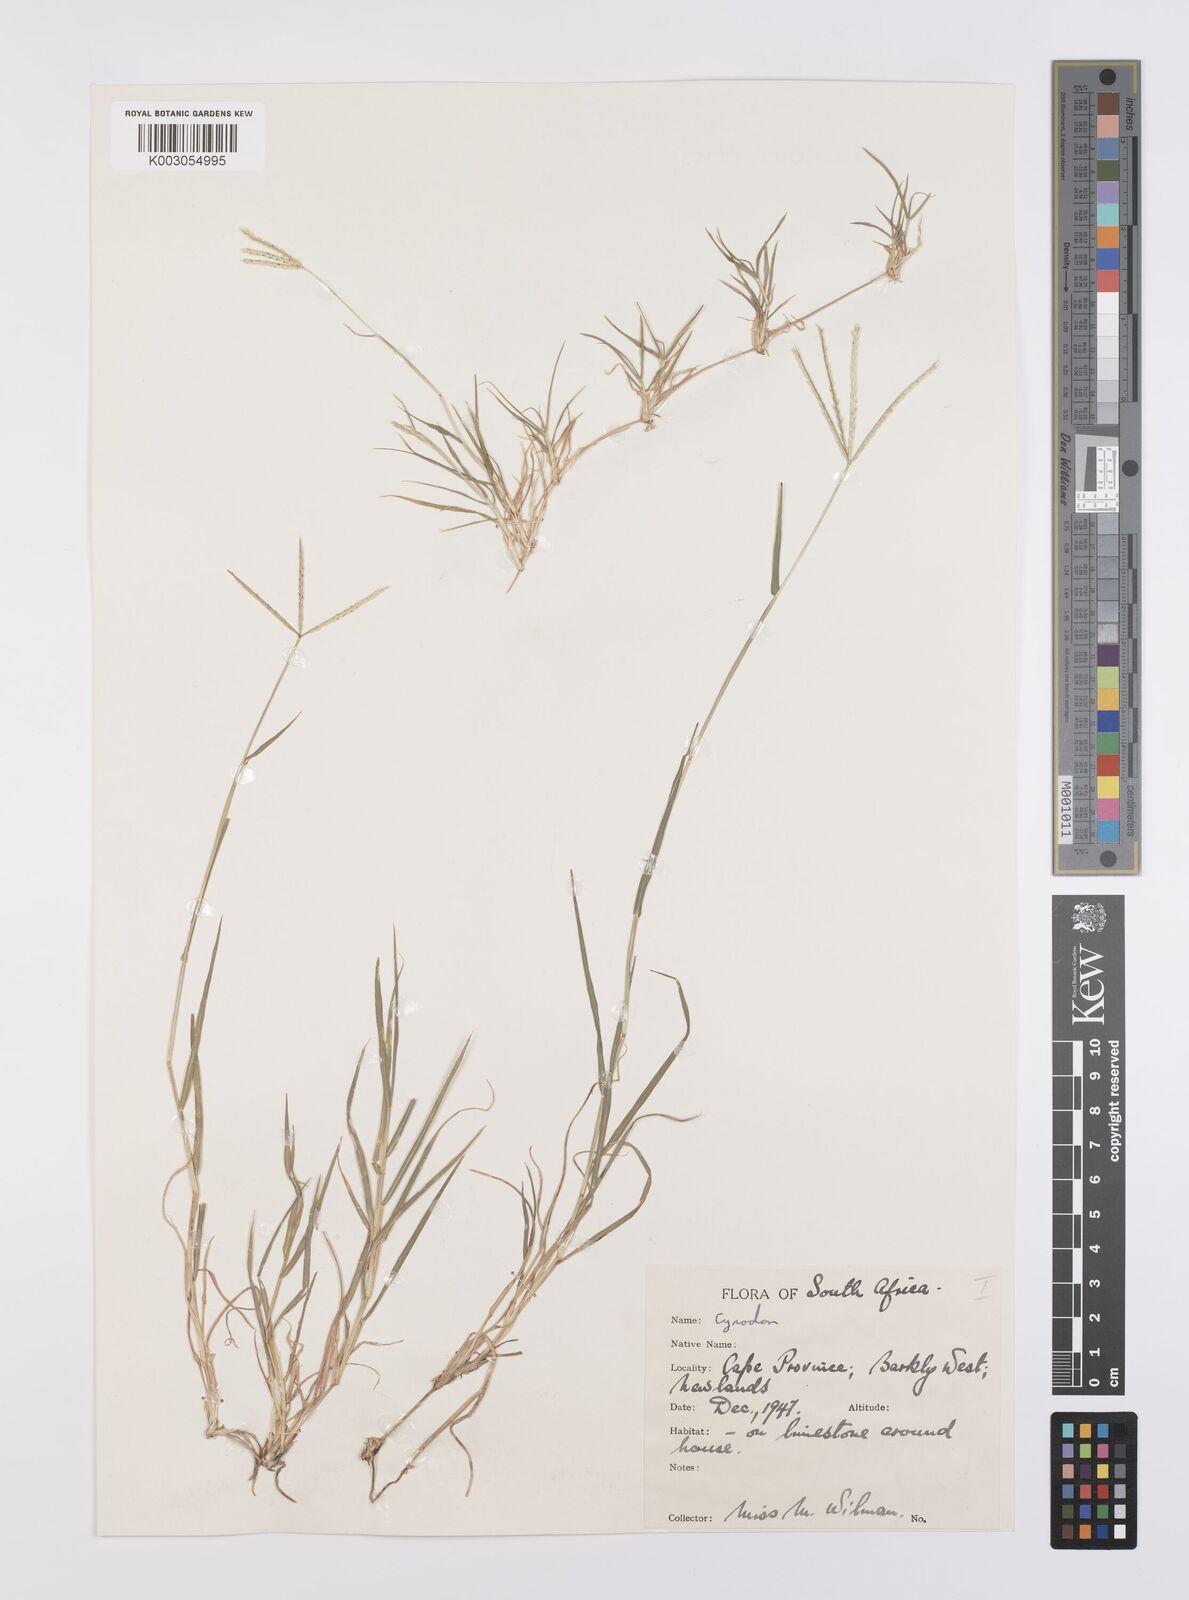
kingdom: Plantae
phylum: Tracheophyta
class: Liliopsida
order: Poales
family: Poaceae
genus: Cynodon
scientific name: Cynodon incompletus
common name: African bermuda-grass
